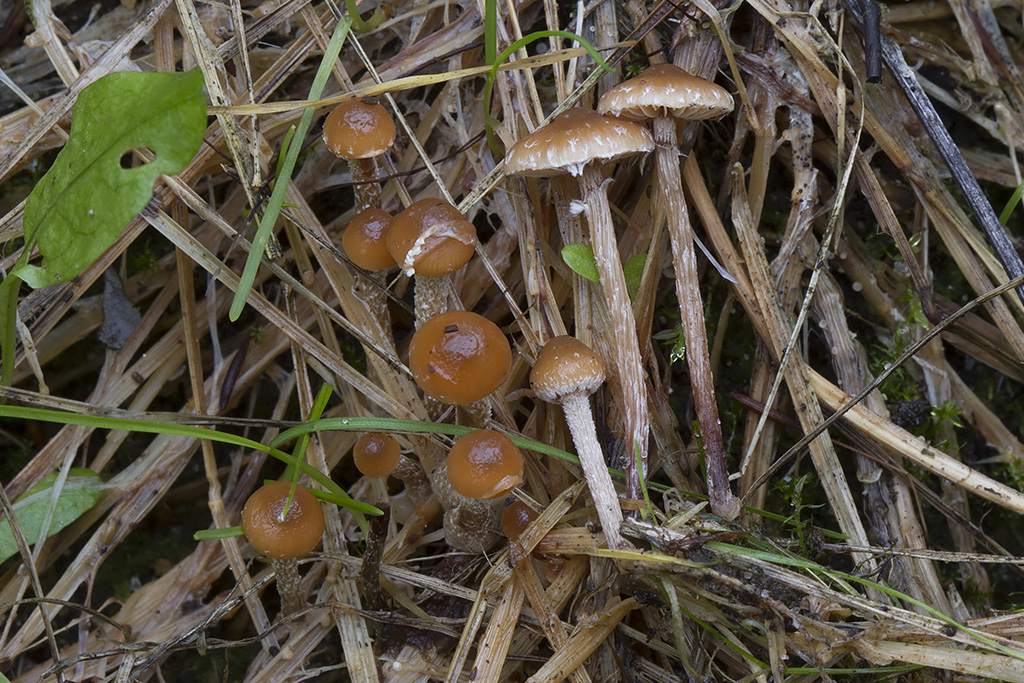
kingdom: Fungi
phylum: Basidiomycota
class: Agaricomycetes
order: Agaricales
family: Strophariaceae
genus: Deconica
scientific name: Deconica inquilina
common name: græs-stråhat
